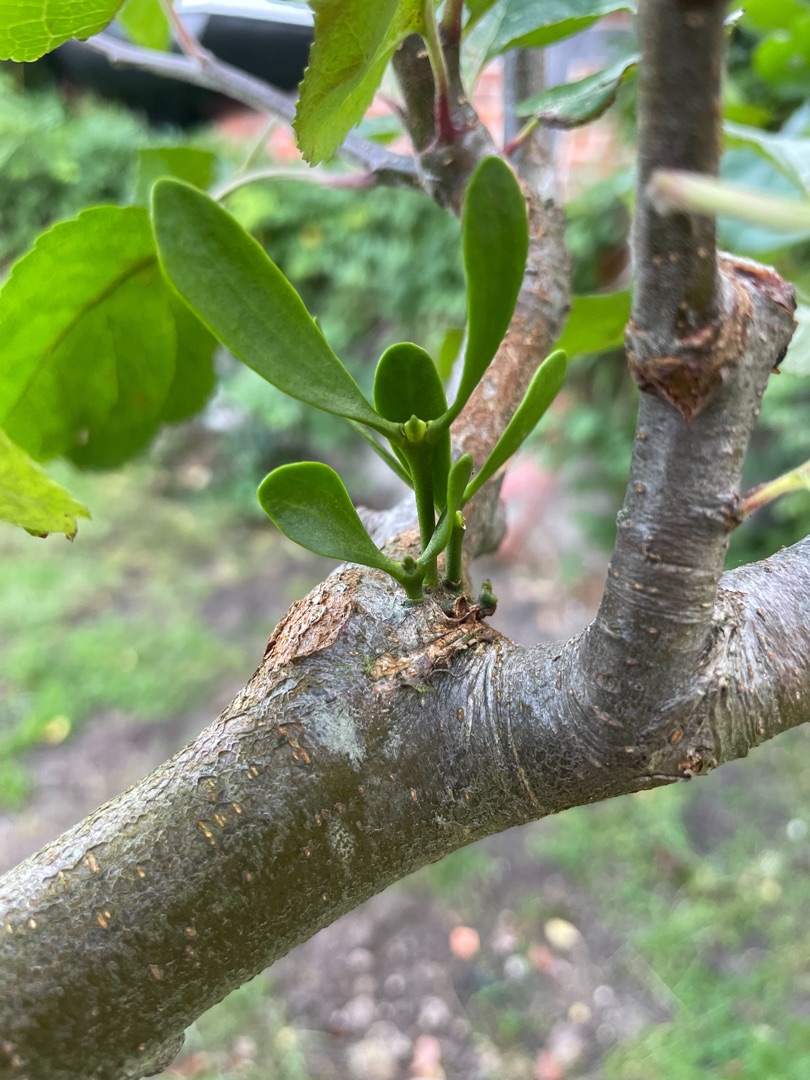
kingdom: Plantae
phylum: Tracheophyta
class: Magnoliopsida
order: Santalales
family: Viscaceae
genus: Viscum
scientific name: Viscum album
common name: Mistelten
